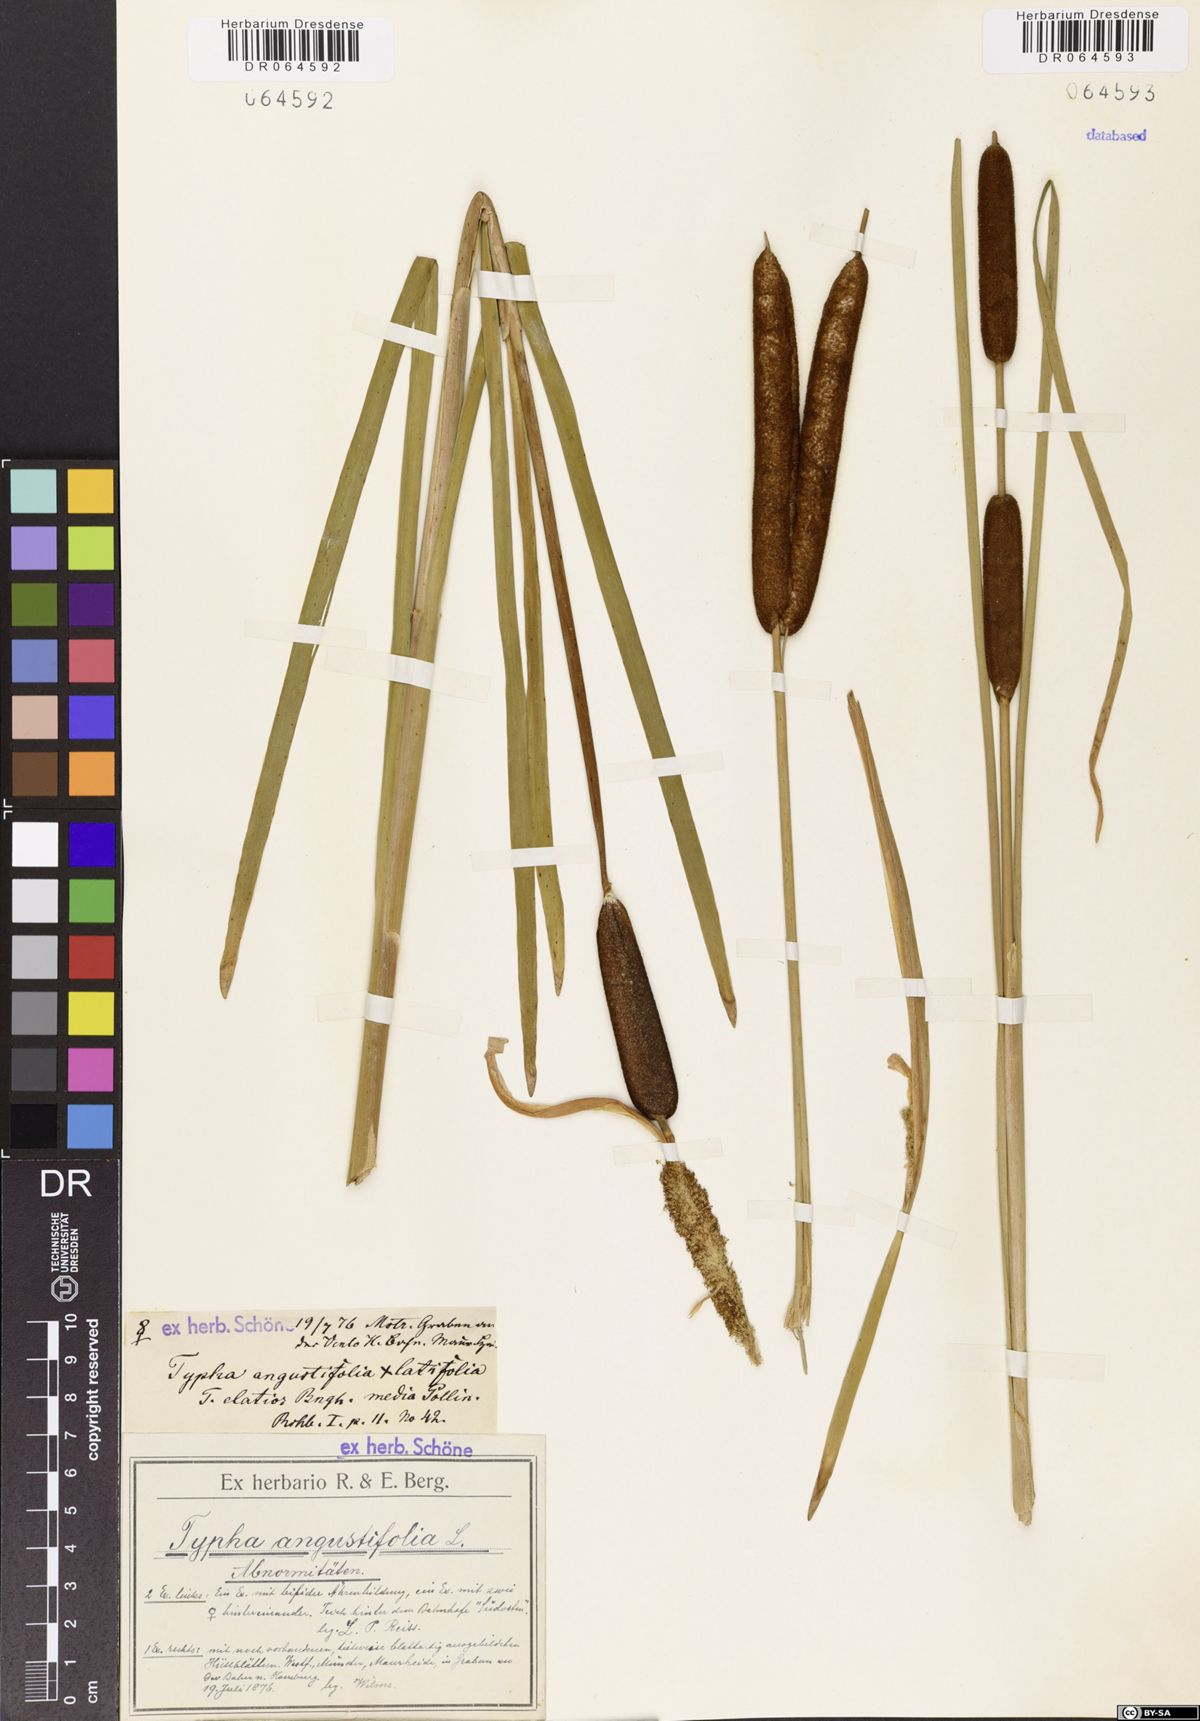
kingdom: Plantae
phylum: Tracheophyta
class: Liliopsida
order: Poales
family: Typhaceae
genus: Typha
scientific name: Typha angustifolia
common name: Lesser bulrush
